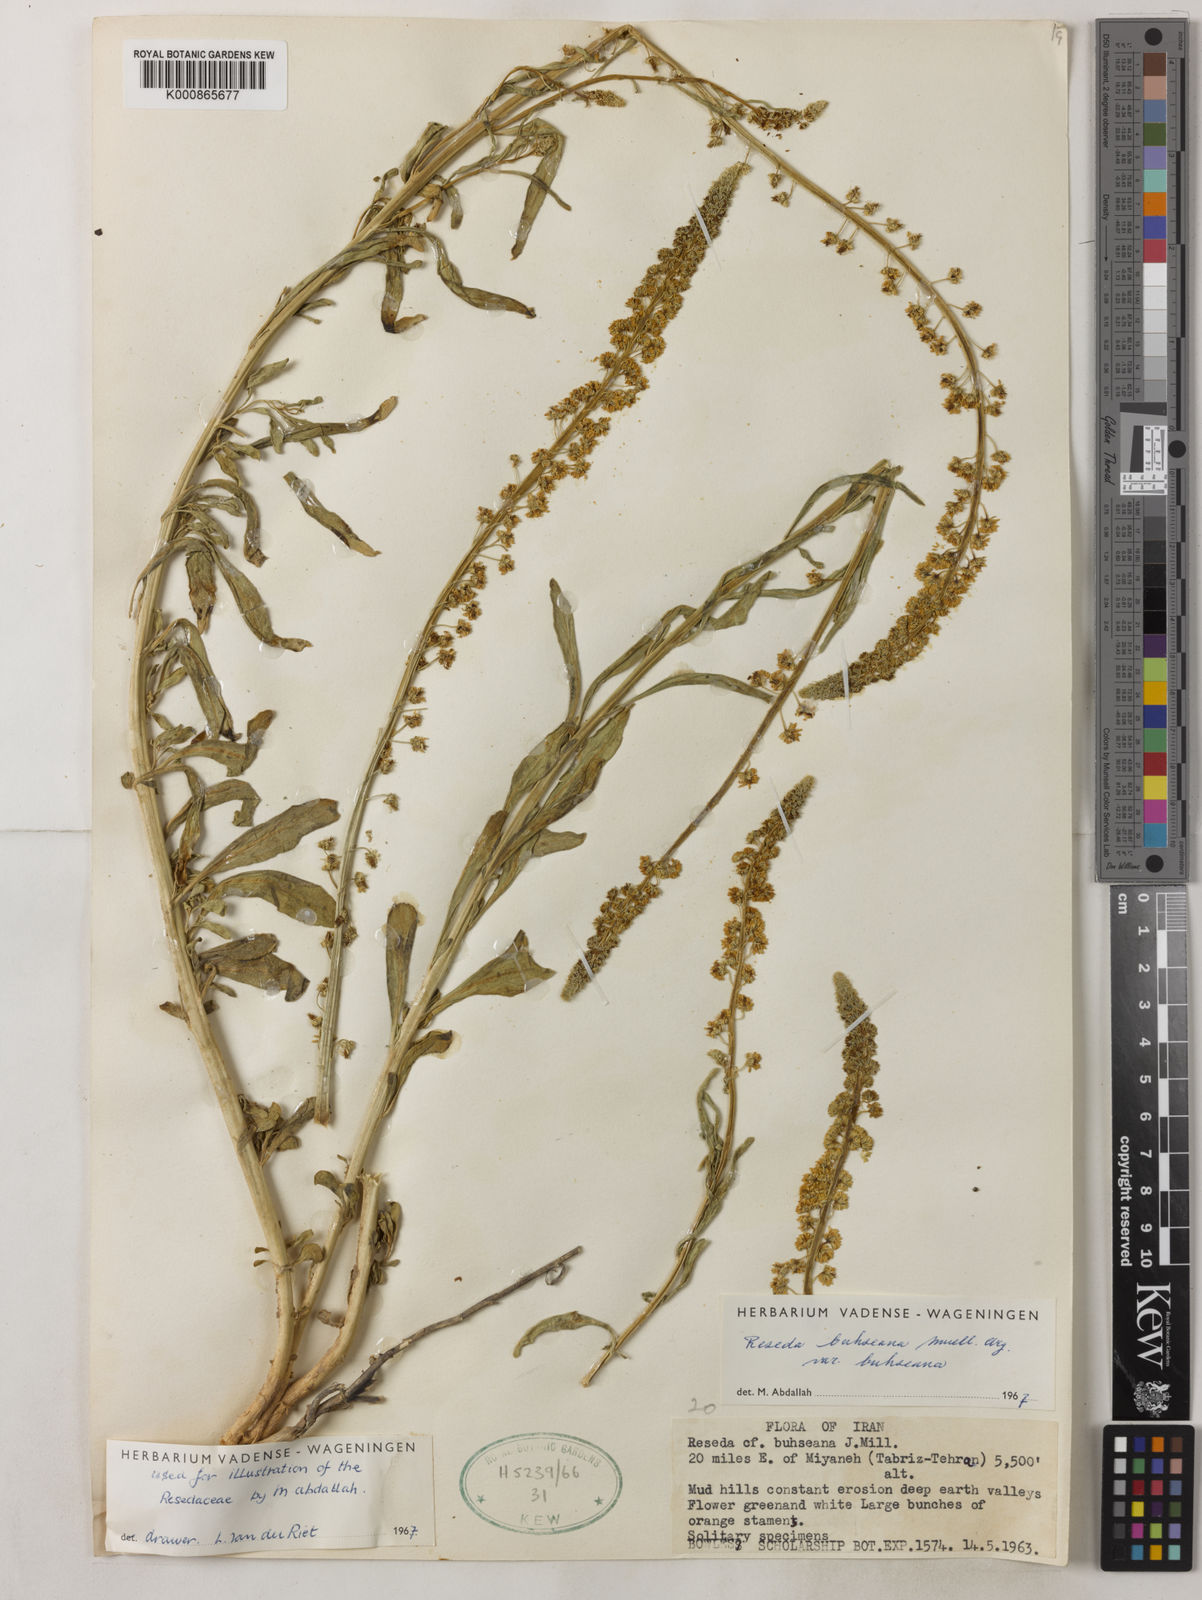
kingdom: Plantae
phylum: Tracheophyta
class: Magnoliopsida
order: Brassicales
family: Resedaceae
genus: Reseda
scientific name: Reseda
